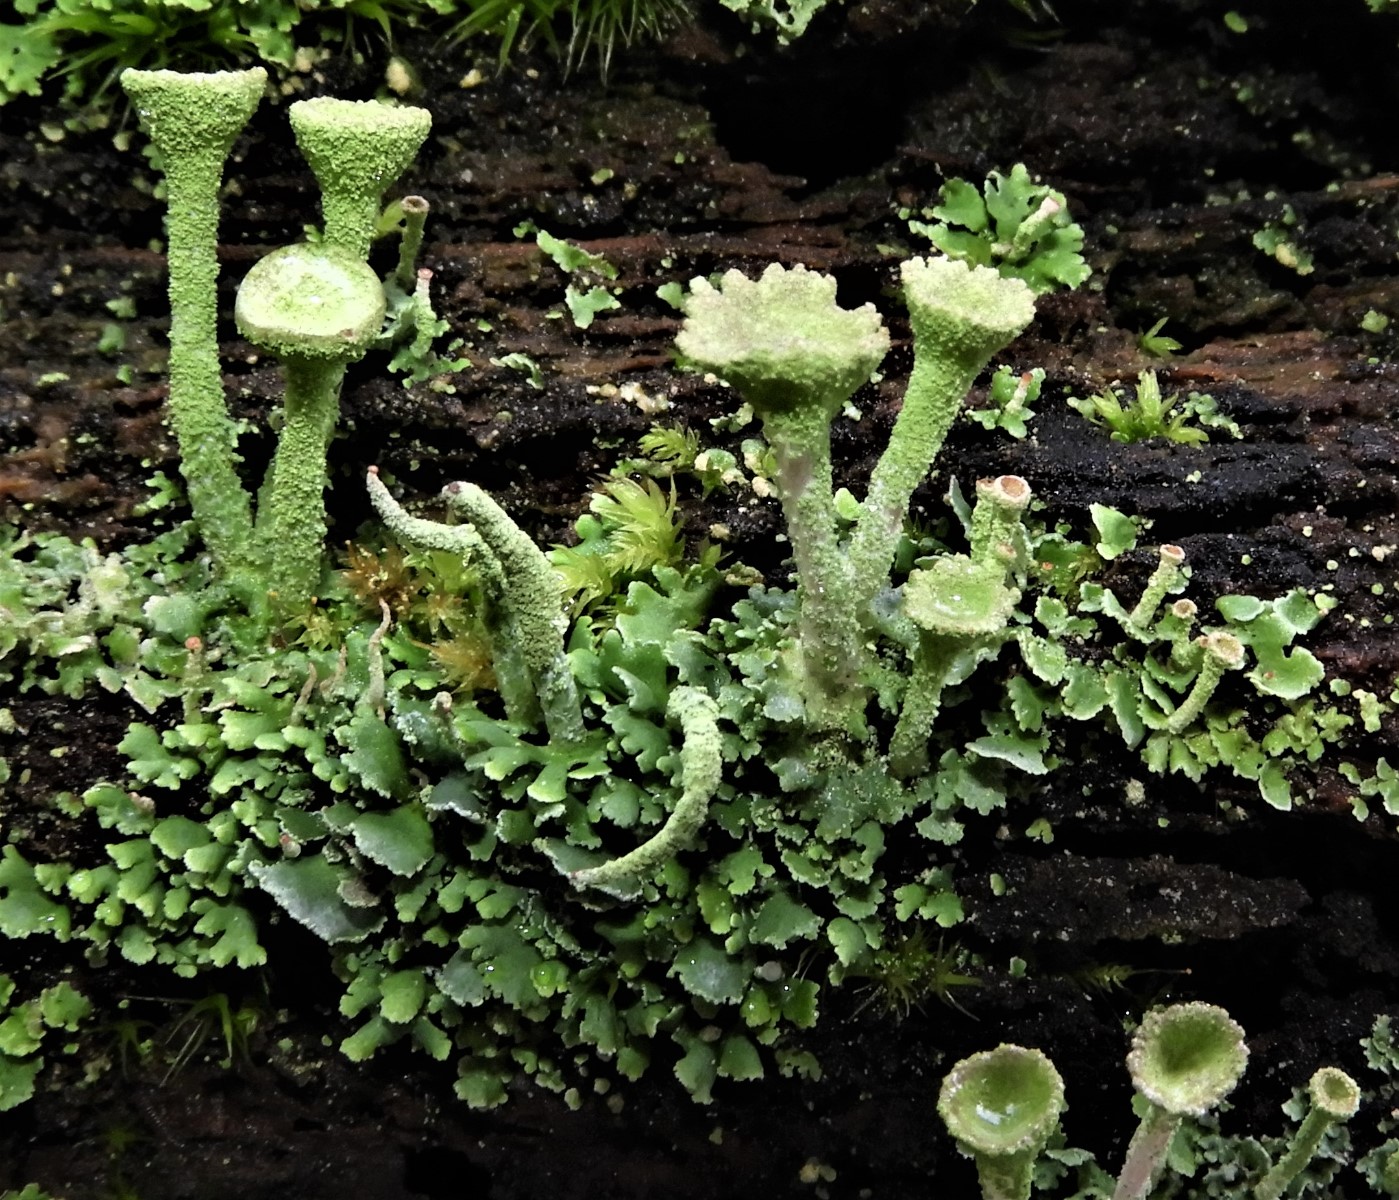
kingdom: Fungi
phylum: Ascomycota
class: Lecanoromycetes
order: Lecanorales
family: Cladoniaceae
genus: Cladonia
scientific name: Cladonia
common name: brungrøn bægerlav
